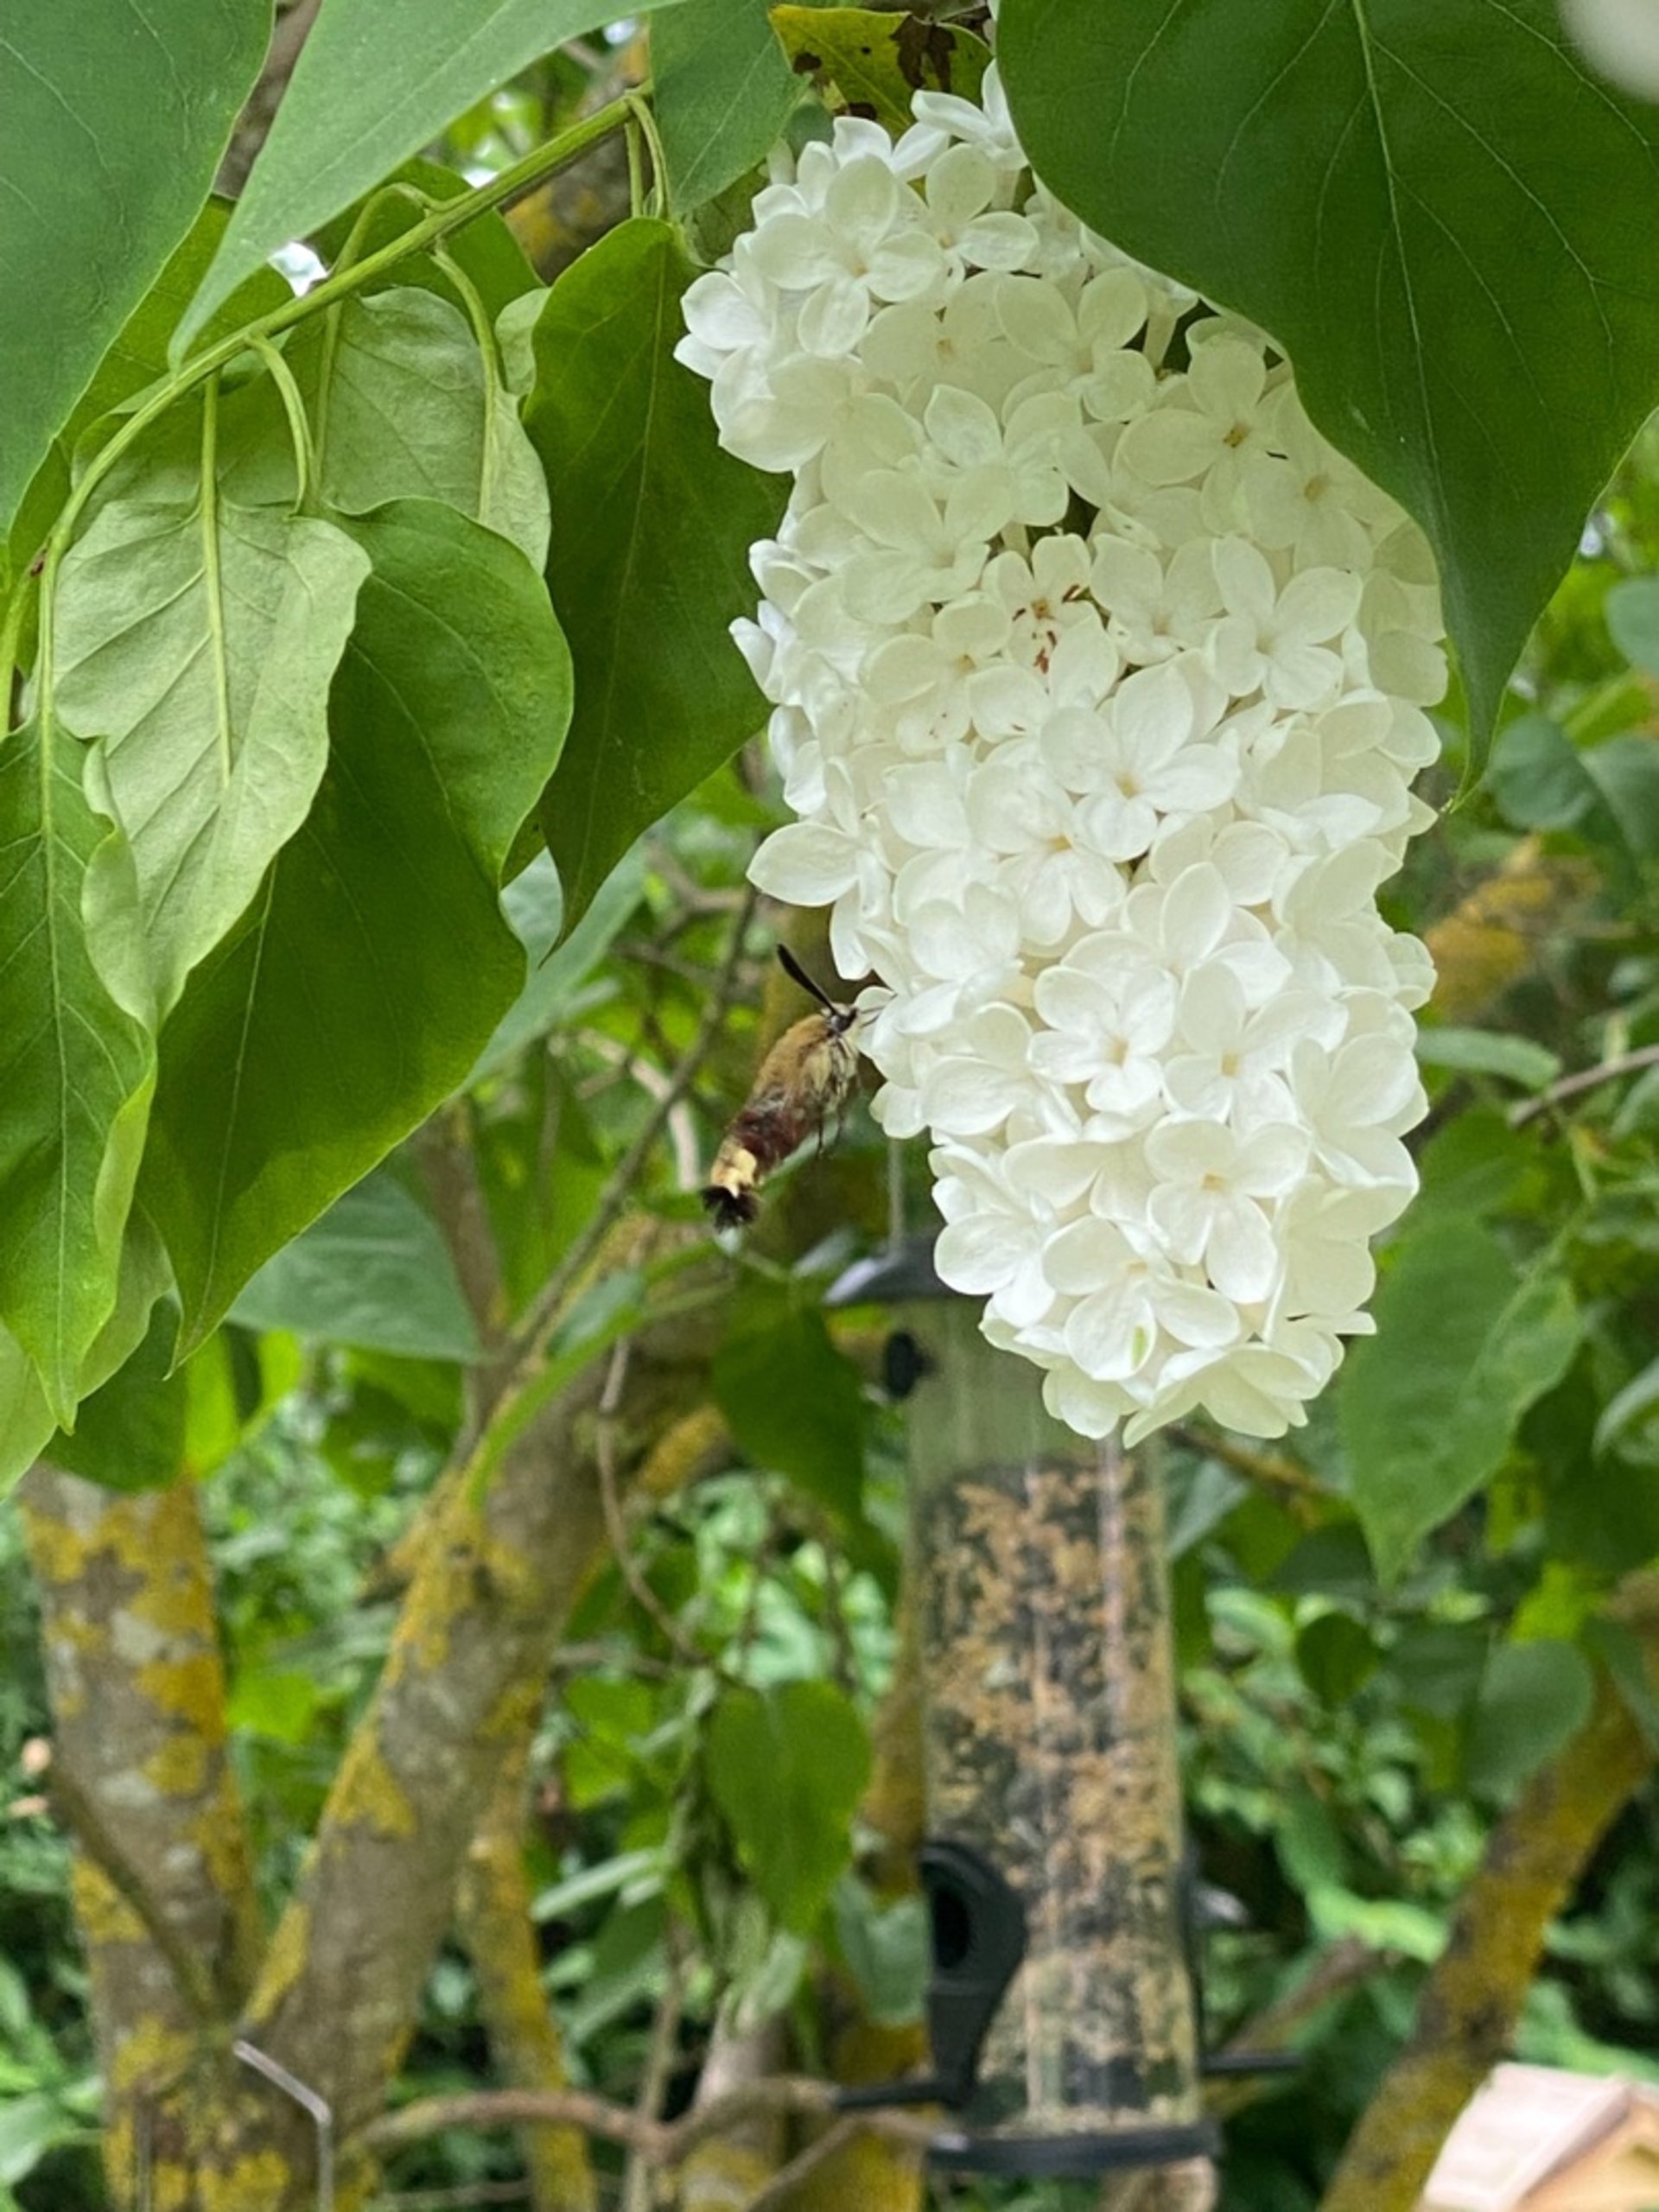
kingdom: Animalia
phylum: Arthropoda
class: Insecta
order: Lepidoptera
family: Sphingidae
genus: Hemaris
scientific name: Hemaris fuciformis
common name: Bredrandet humlebisværmer
